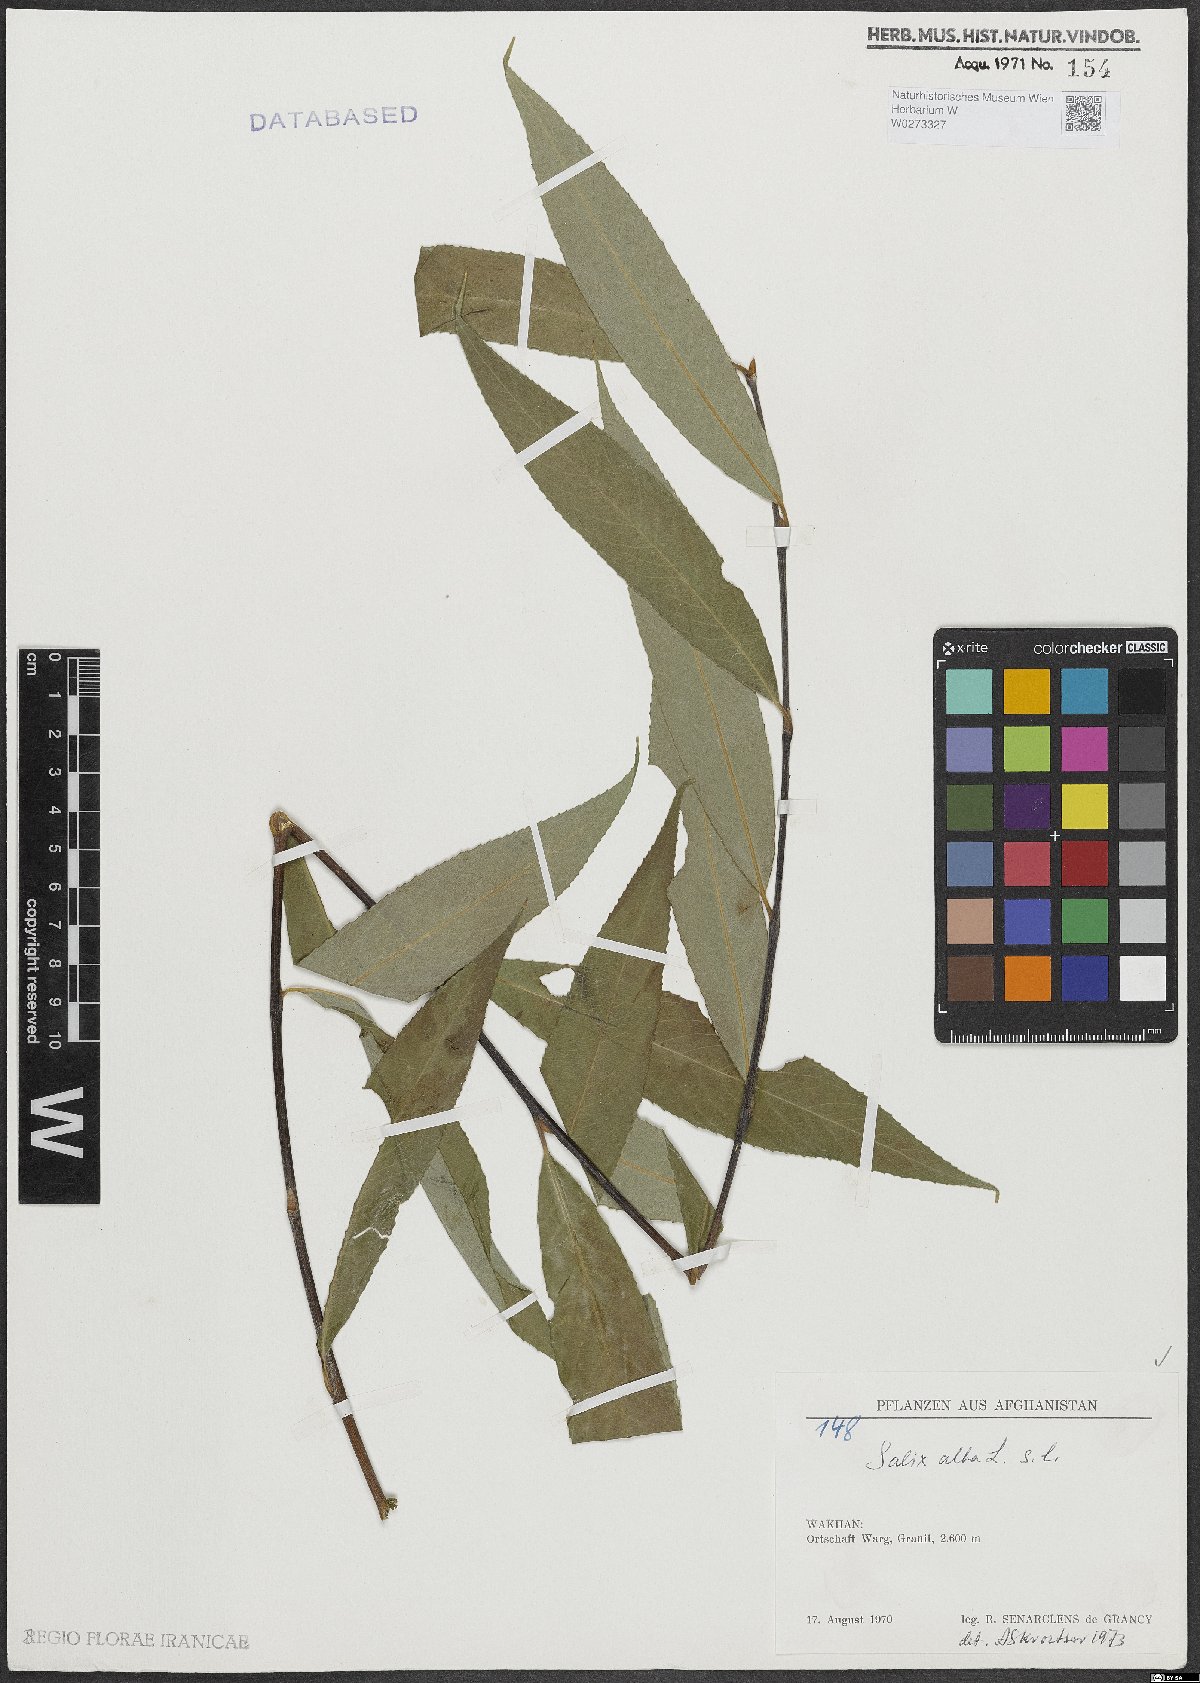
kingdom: Plantae
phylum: Tracheophyta
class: Magnoliopsida
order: Malpighiales
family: Salicaceae
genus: Salix
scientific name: Salix alba
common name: White willow
